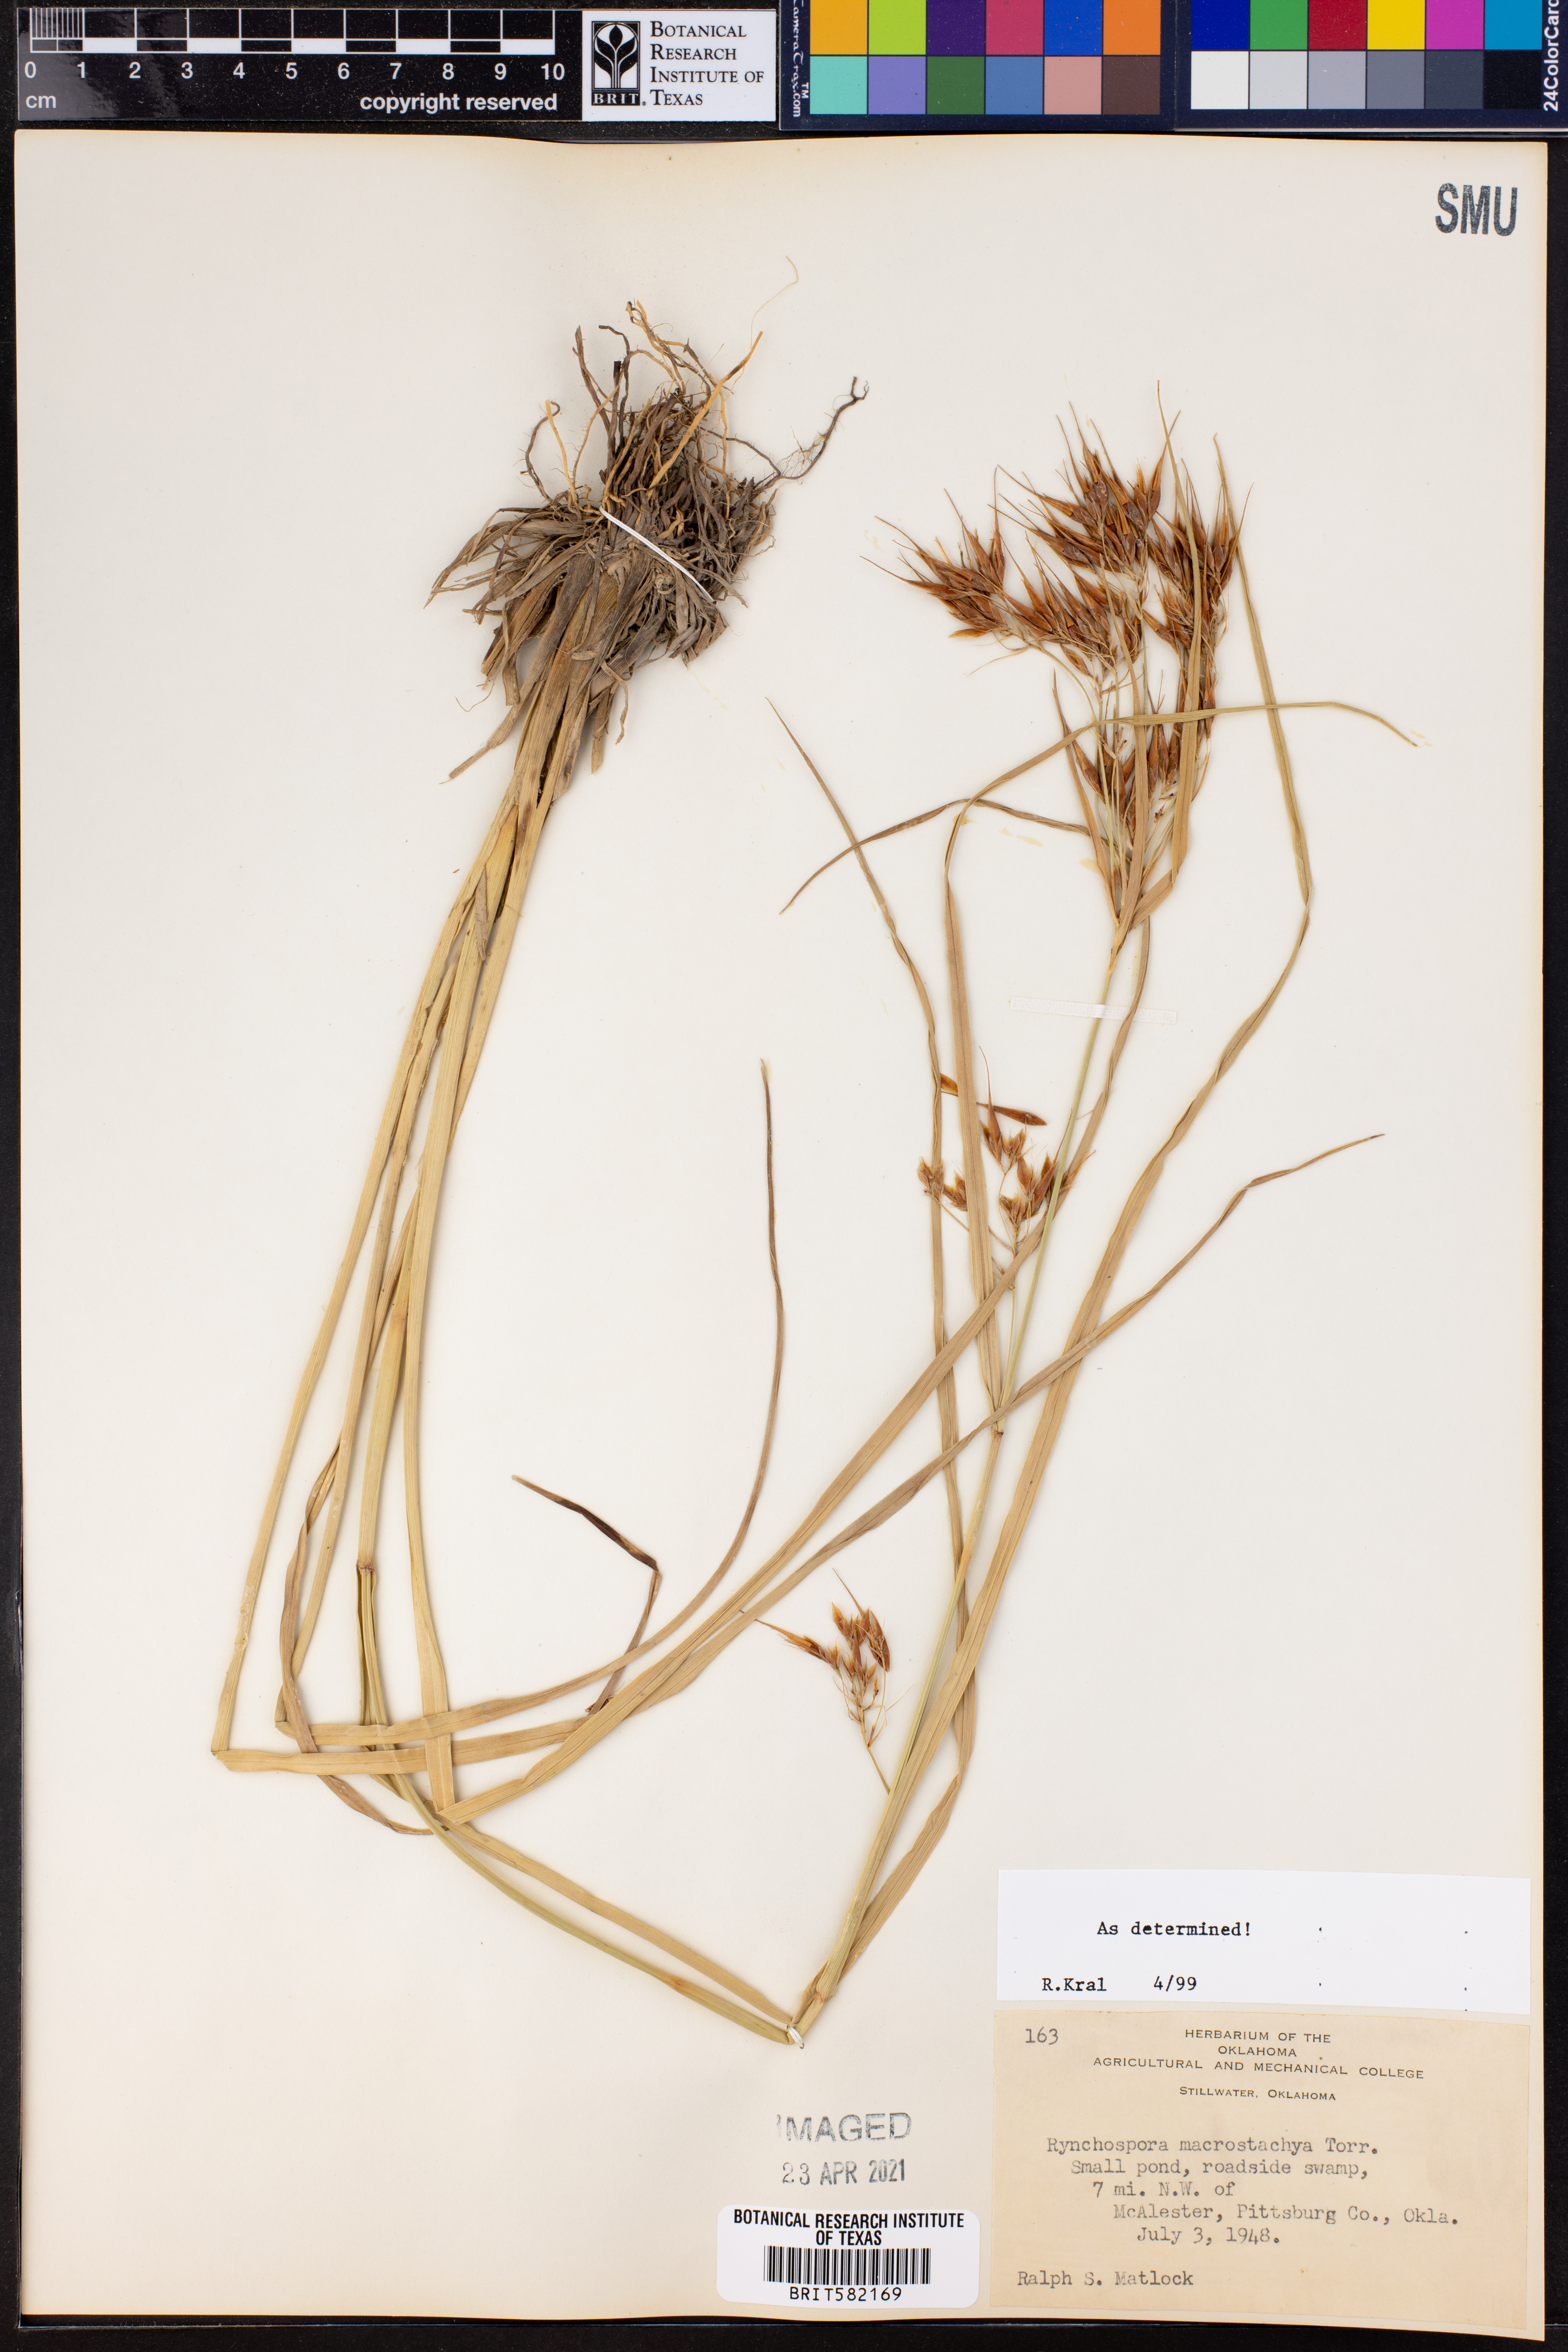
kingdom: Plantae
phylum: Tracheophyta
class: Liliopsida
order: Poales
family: Cyperaceae
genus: Rhynchospora
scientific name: Rhynchospora macrostachya
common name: Tall beakrush
